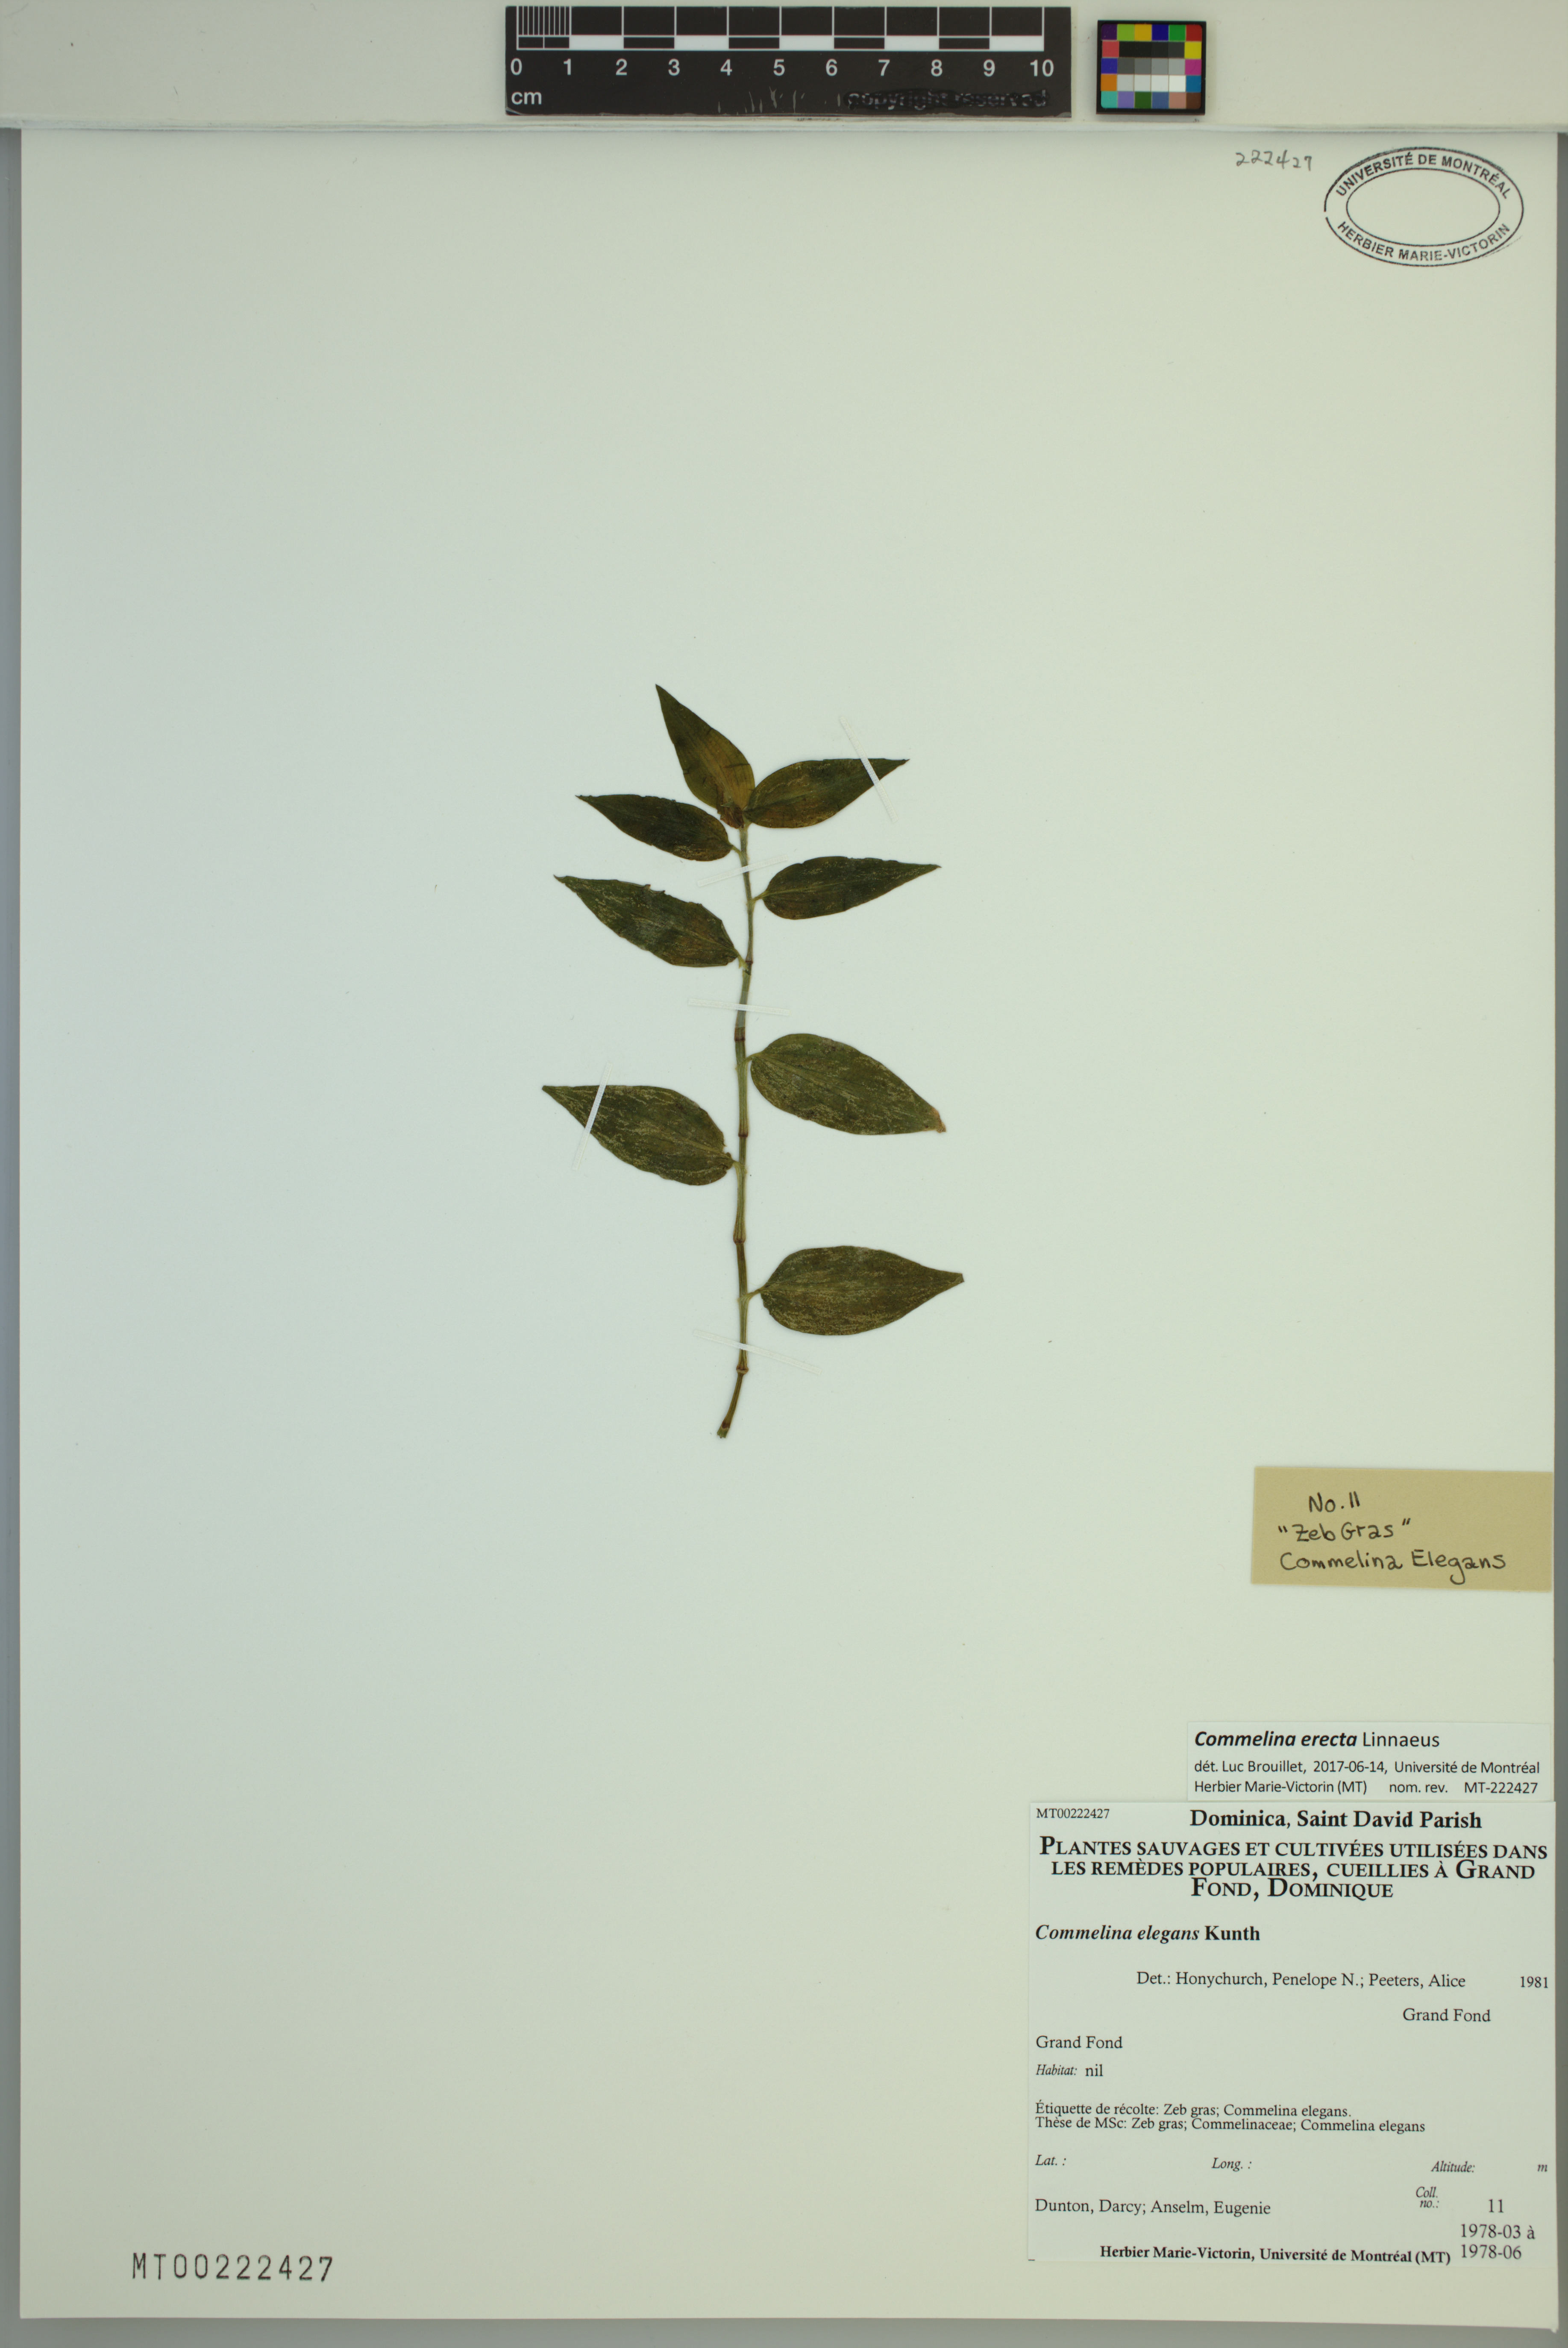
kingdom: Plantae
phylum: Tracheophyta
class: Liliopsida
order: Commelinales
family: Commelinaceae
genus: Commelina
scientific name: Commelina erecta
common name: Blousel blommetjie
